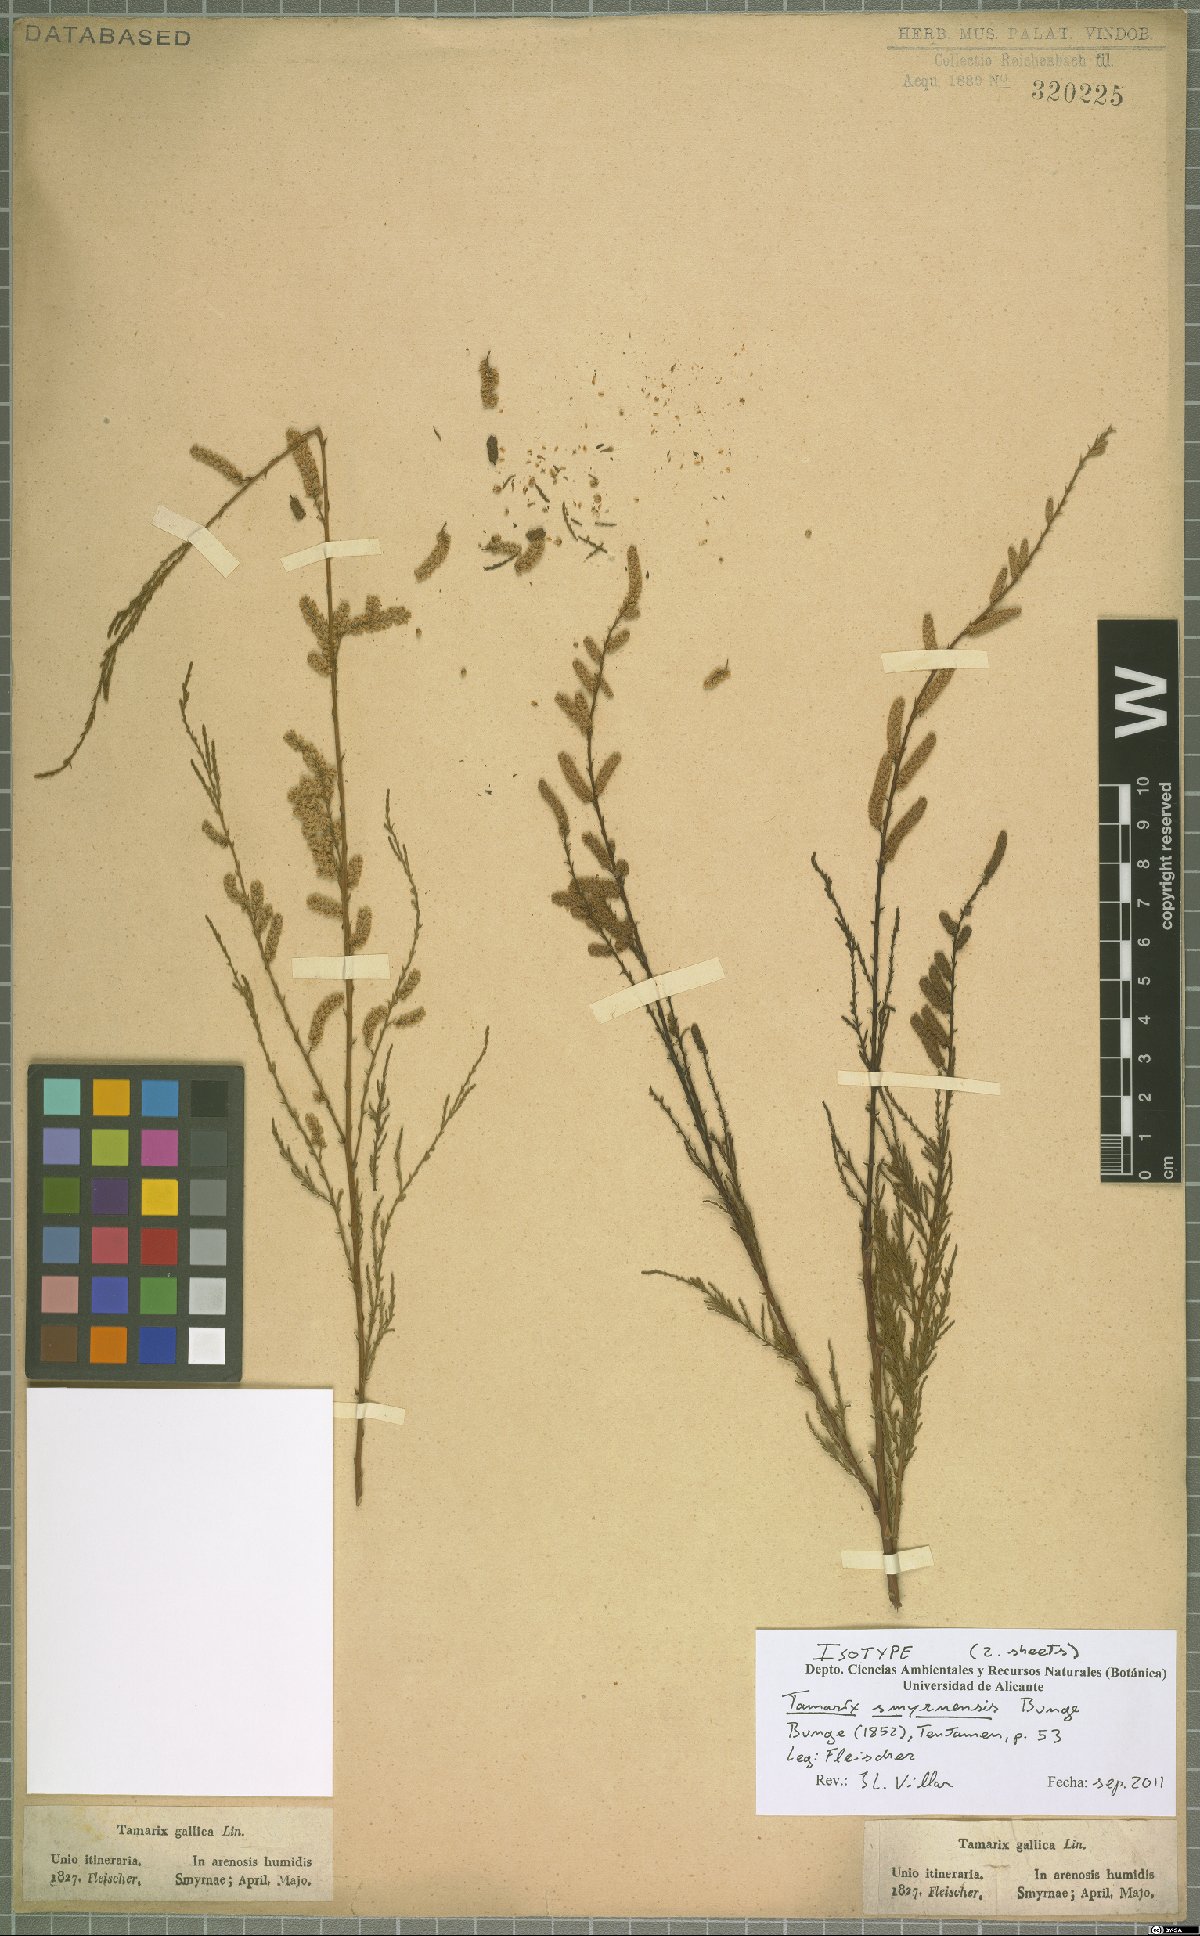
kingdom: Plantae
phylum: Tracheophyta
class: Magnoliopsida
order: Caryophyllales
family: Tamaricaceae
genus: Tamarix
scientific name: Tamarix smyrnensis
